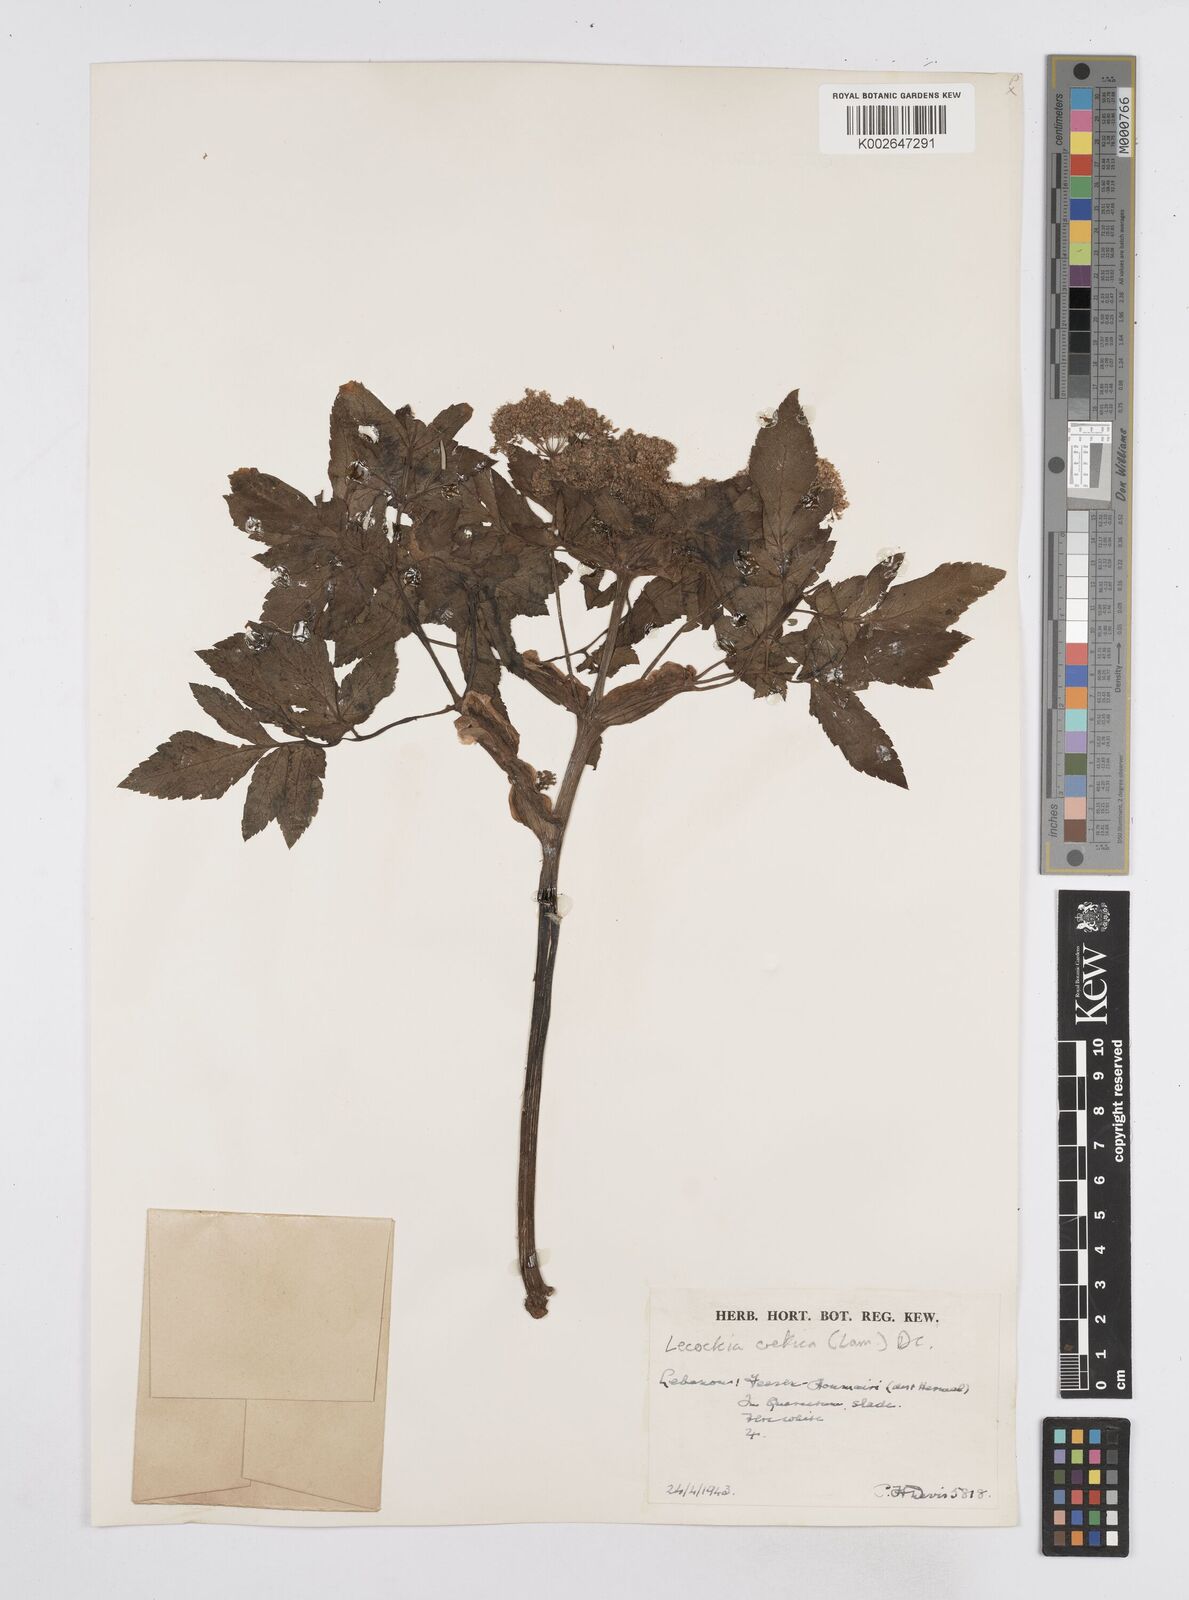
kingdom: Plantae
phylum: Tracheophyta
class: Magnoliopsida
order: Apiales
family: Apiaceae
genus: Lecokia
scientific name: Lecokia cretica
